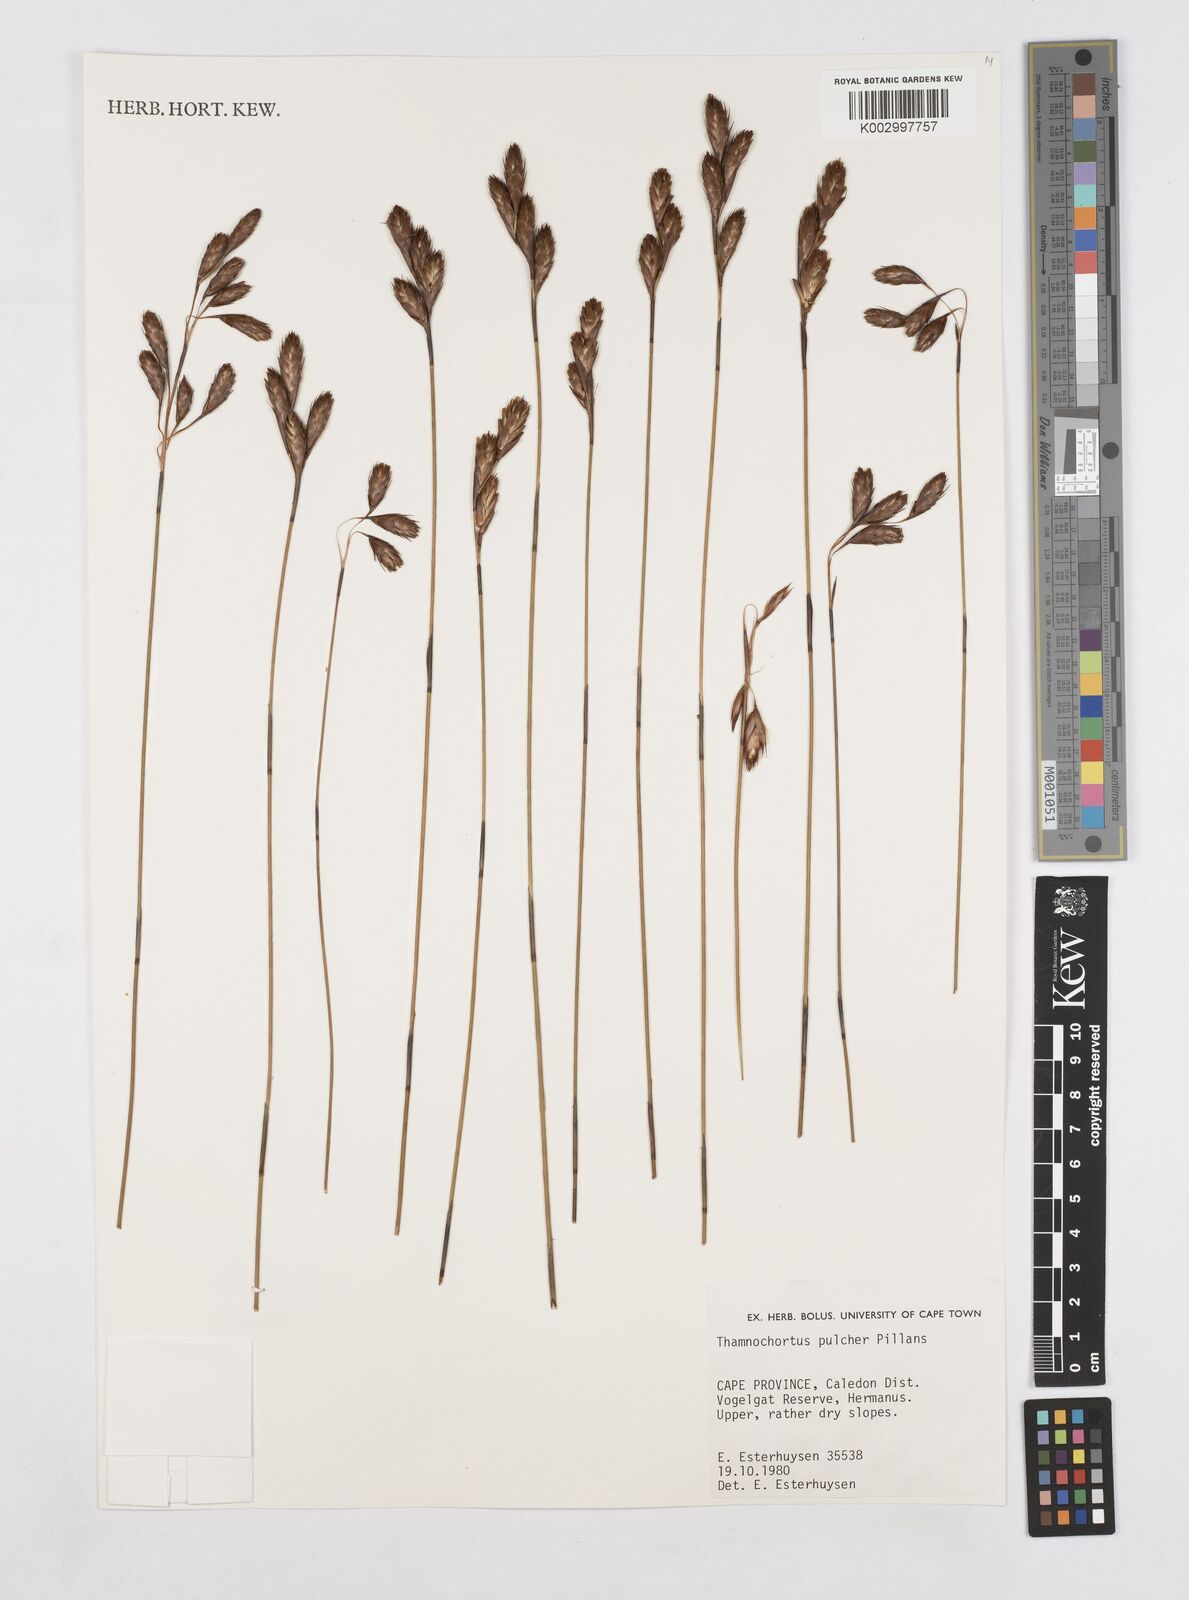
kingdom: Plantae
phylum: Tracheophyta
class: Liliopsida
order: Poales
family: Restionaceae
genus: Elegia
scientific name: Elegia juncea
